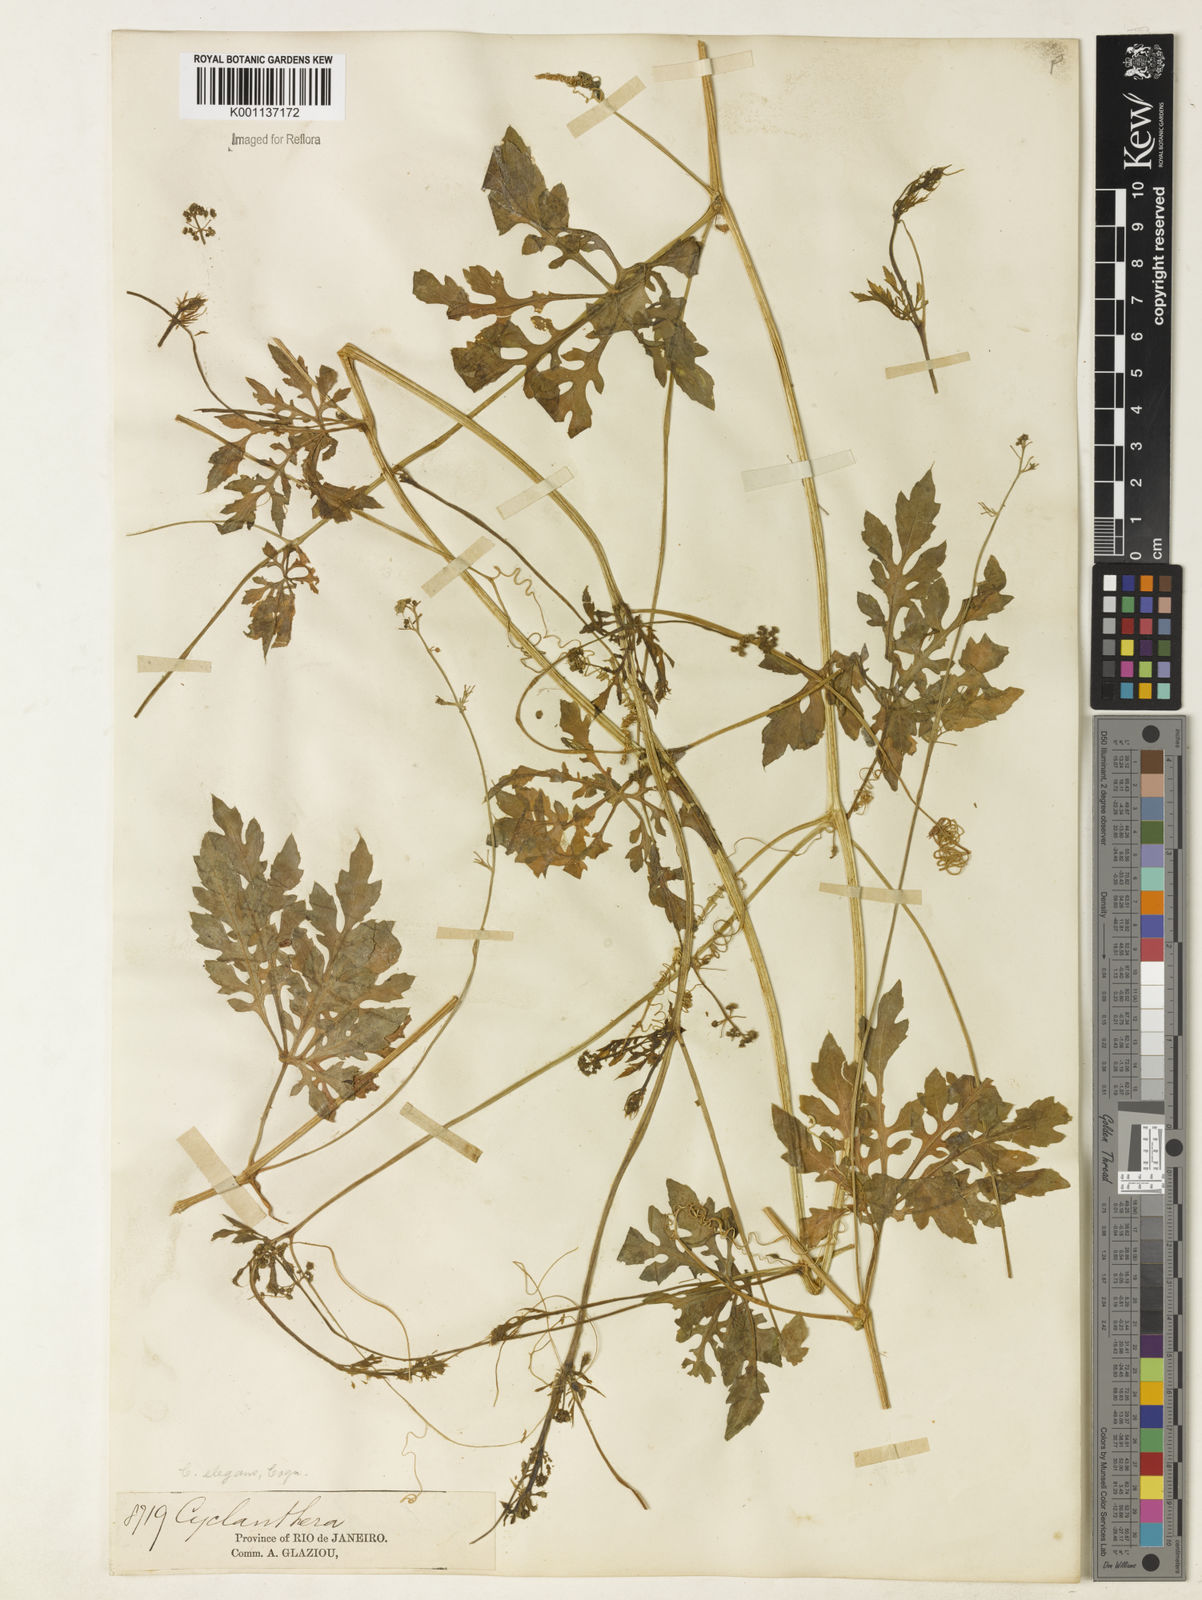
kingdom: Plantae
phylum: Tracheophyta
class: Magnoliopsida
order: Cucurbitales
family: Cucurbitaceae
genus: Cyclanthera
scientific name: Cyclanthera tenuisepala
